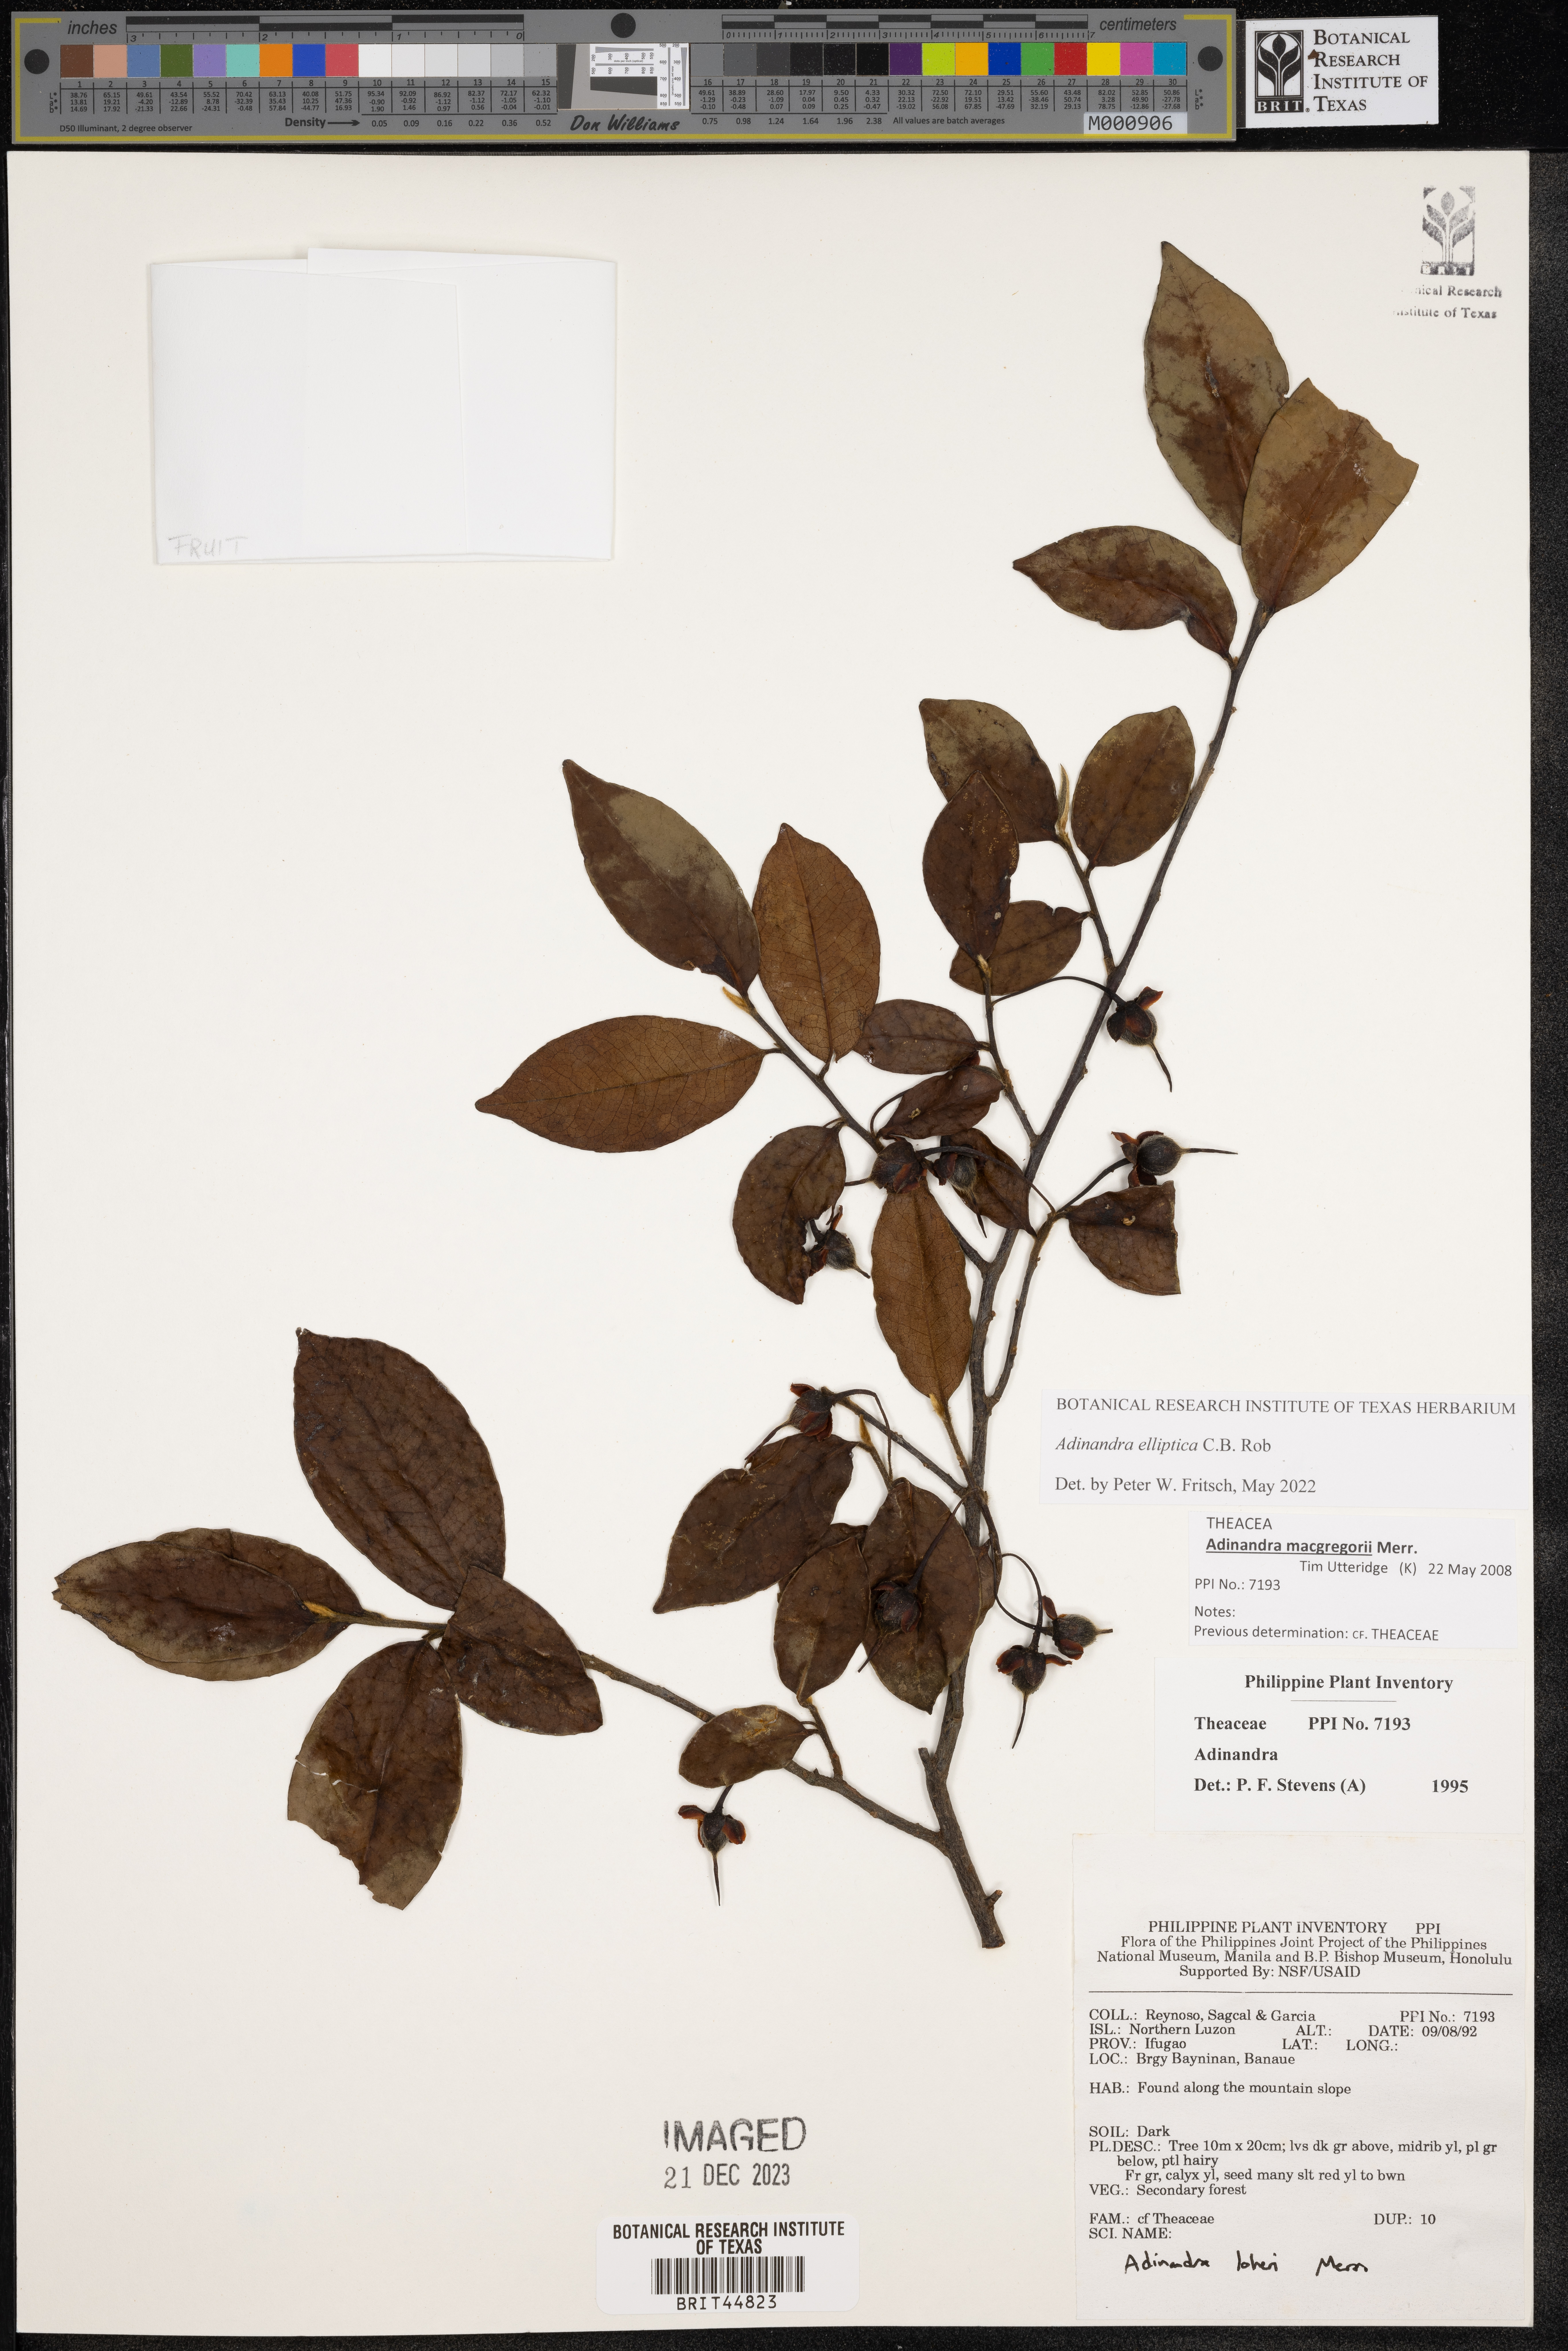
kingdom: Plantae
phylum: Tracheophyta
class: Magnoliopsida
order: Ericales
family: Pentaphylacaceae
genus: Adinandra
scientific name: Adinandra
